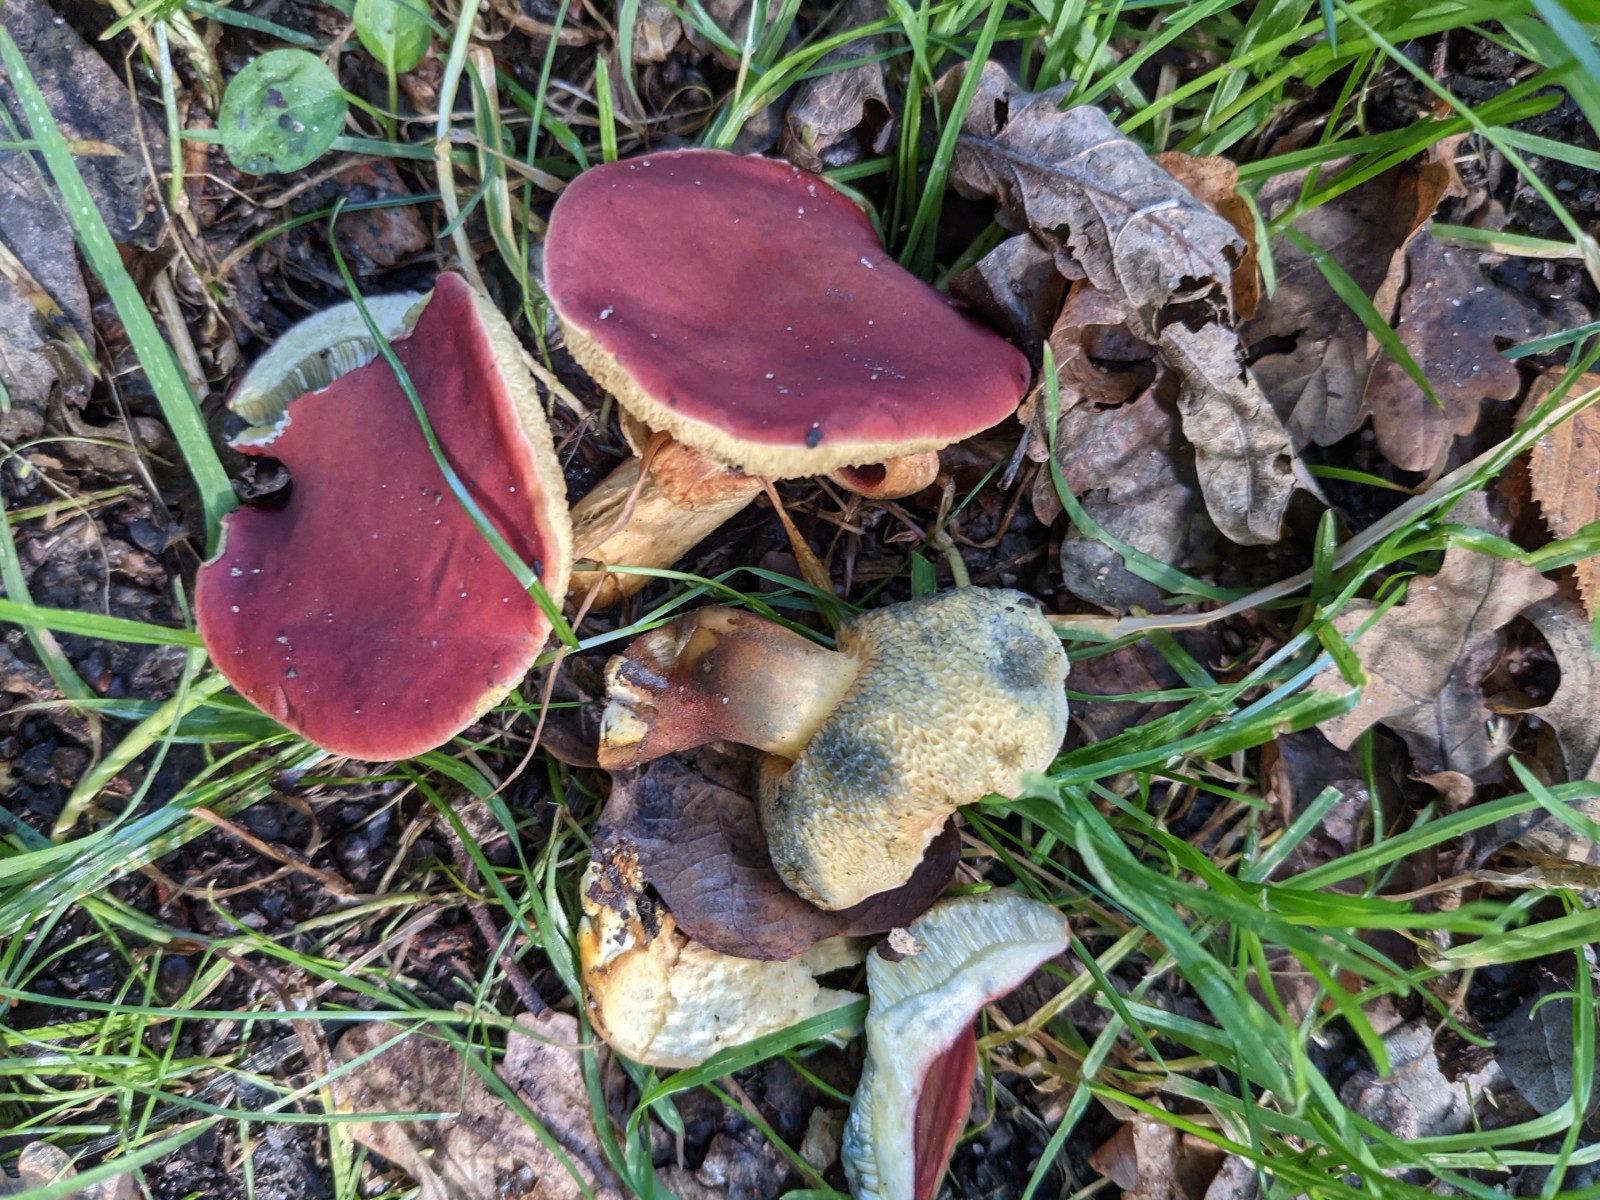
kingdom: Fungi
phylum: Basidiomycota
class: Agaricomycetes
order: Boletales
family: Boletaceae
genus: Hortiboletus
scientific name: Hortiboletus rubellus
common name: blodrød rørhat
